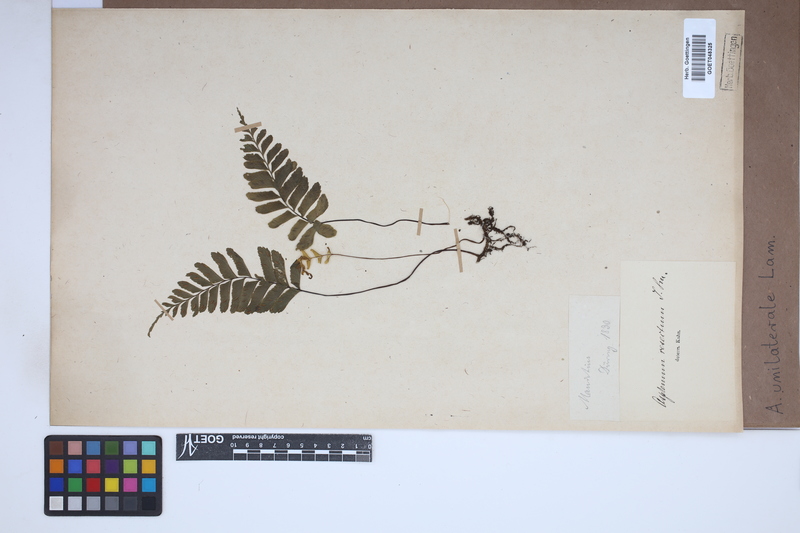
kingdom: Plantae
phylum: Tracheophyta
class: Polypodiopsida
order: Polypodiales
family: Aspleniaceae
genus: Hymenasplenium
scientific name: Hymenasplenium unilaterale
